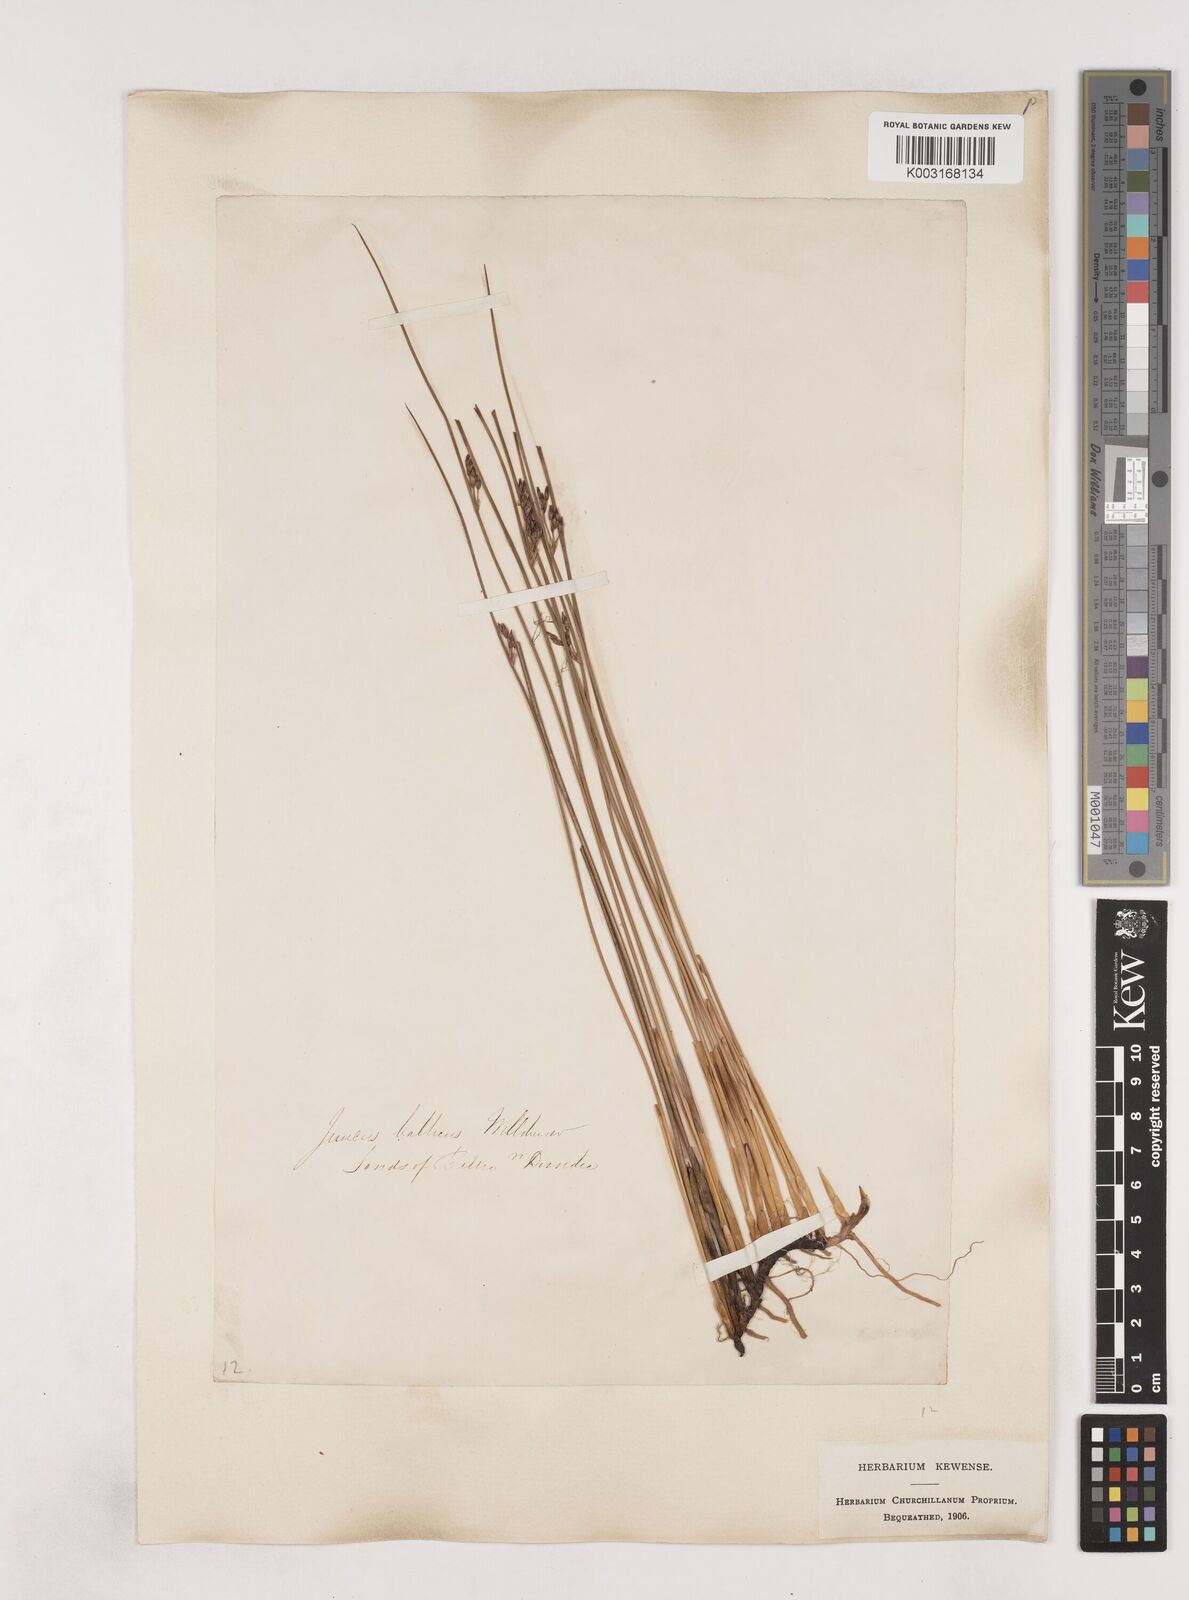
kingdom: Plantae
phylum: Tracheophyta
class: Liliopsida
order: Poales
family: Juncaceae
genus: Juncus
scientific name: Juncus balticus
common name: Baltic rush
